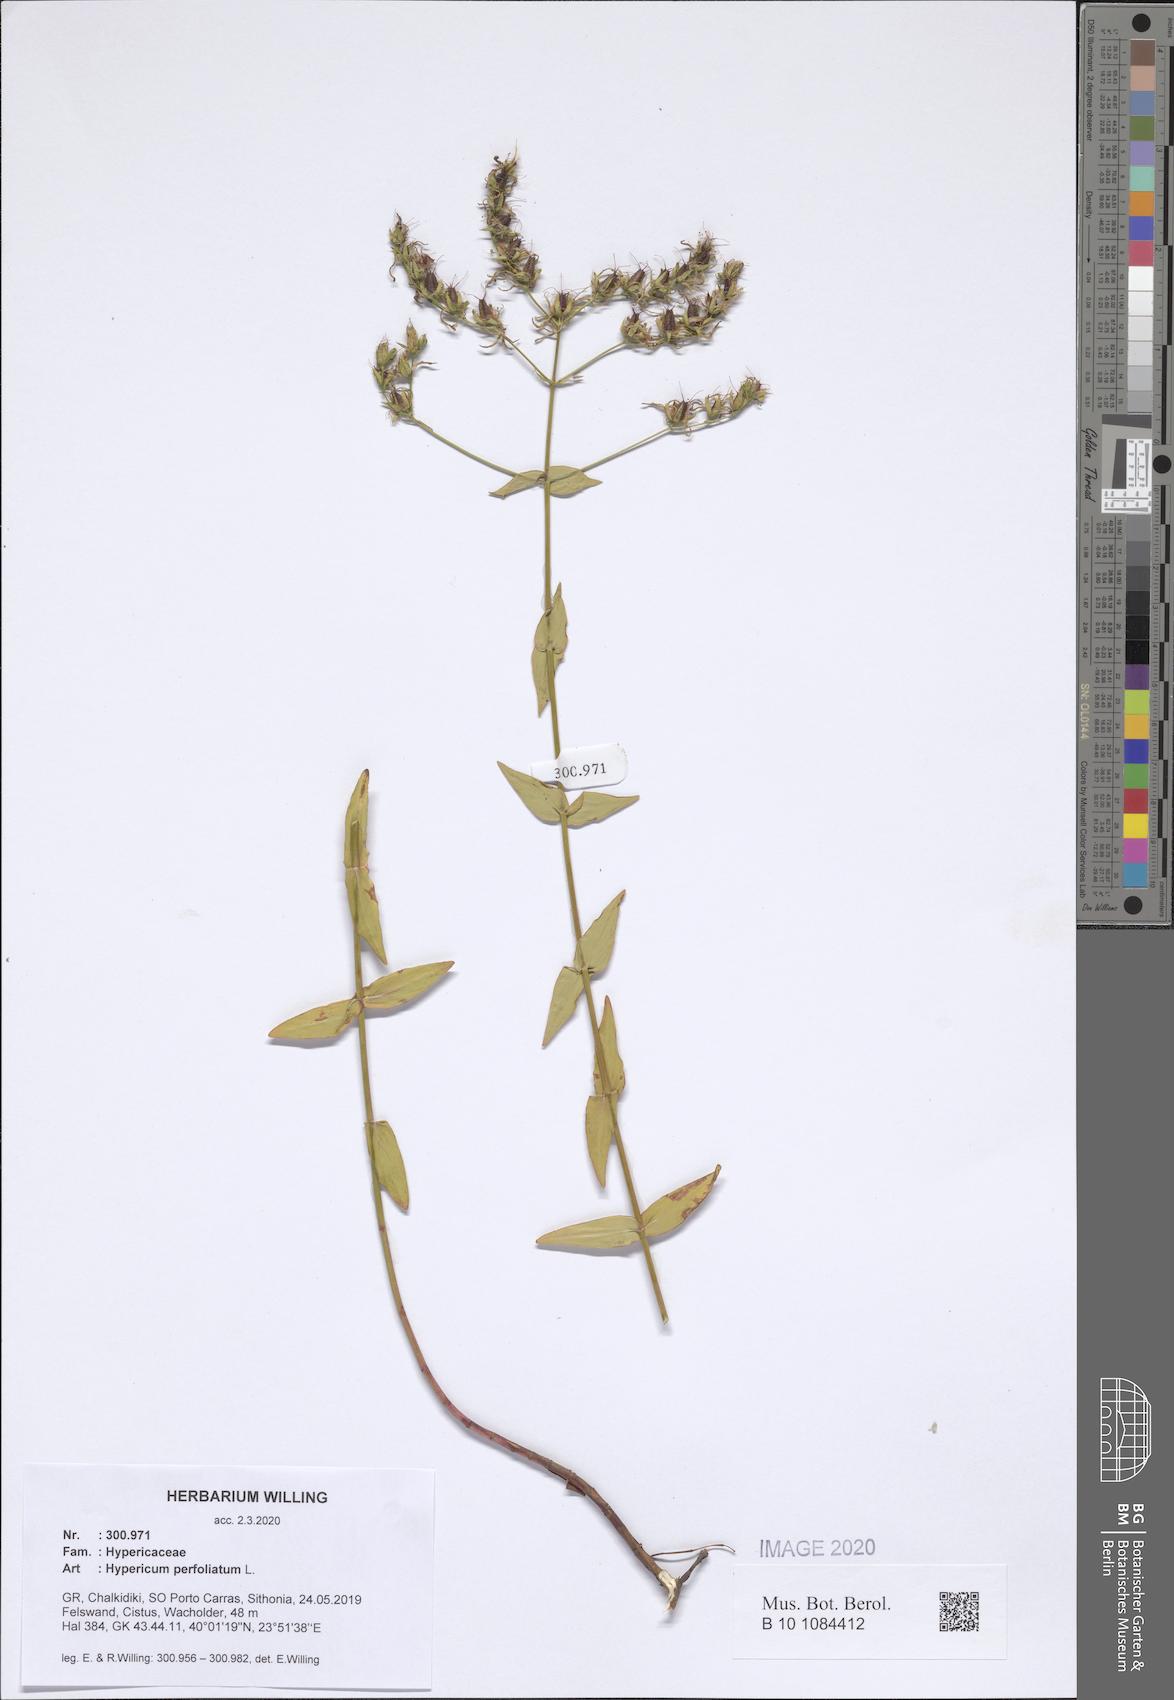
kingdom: Plantae
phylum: Tracheophyta
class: Magnoliopsida
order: Malpighiales
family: Hypericaceae
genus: Hypericum
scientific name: Hypericum perfoliatum
